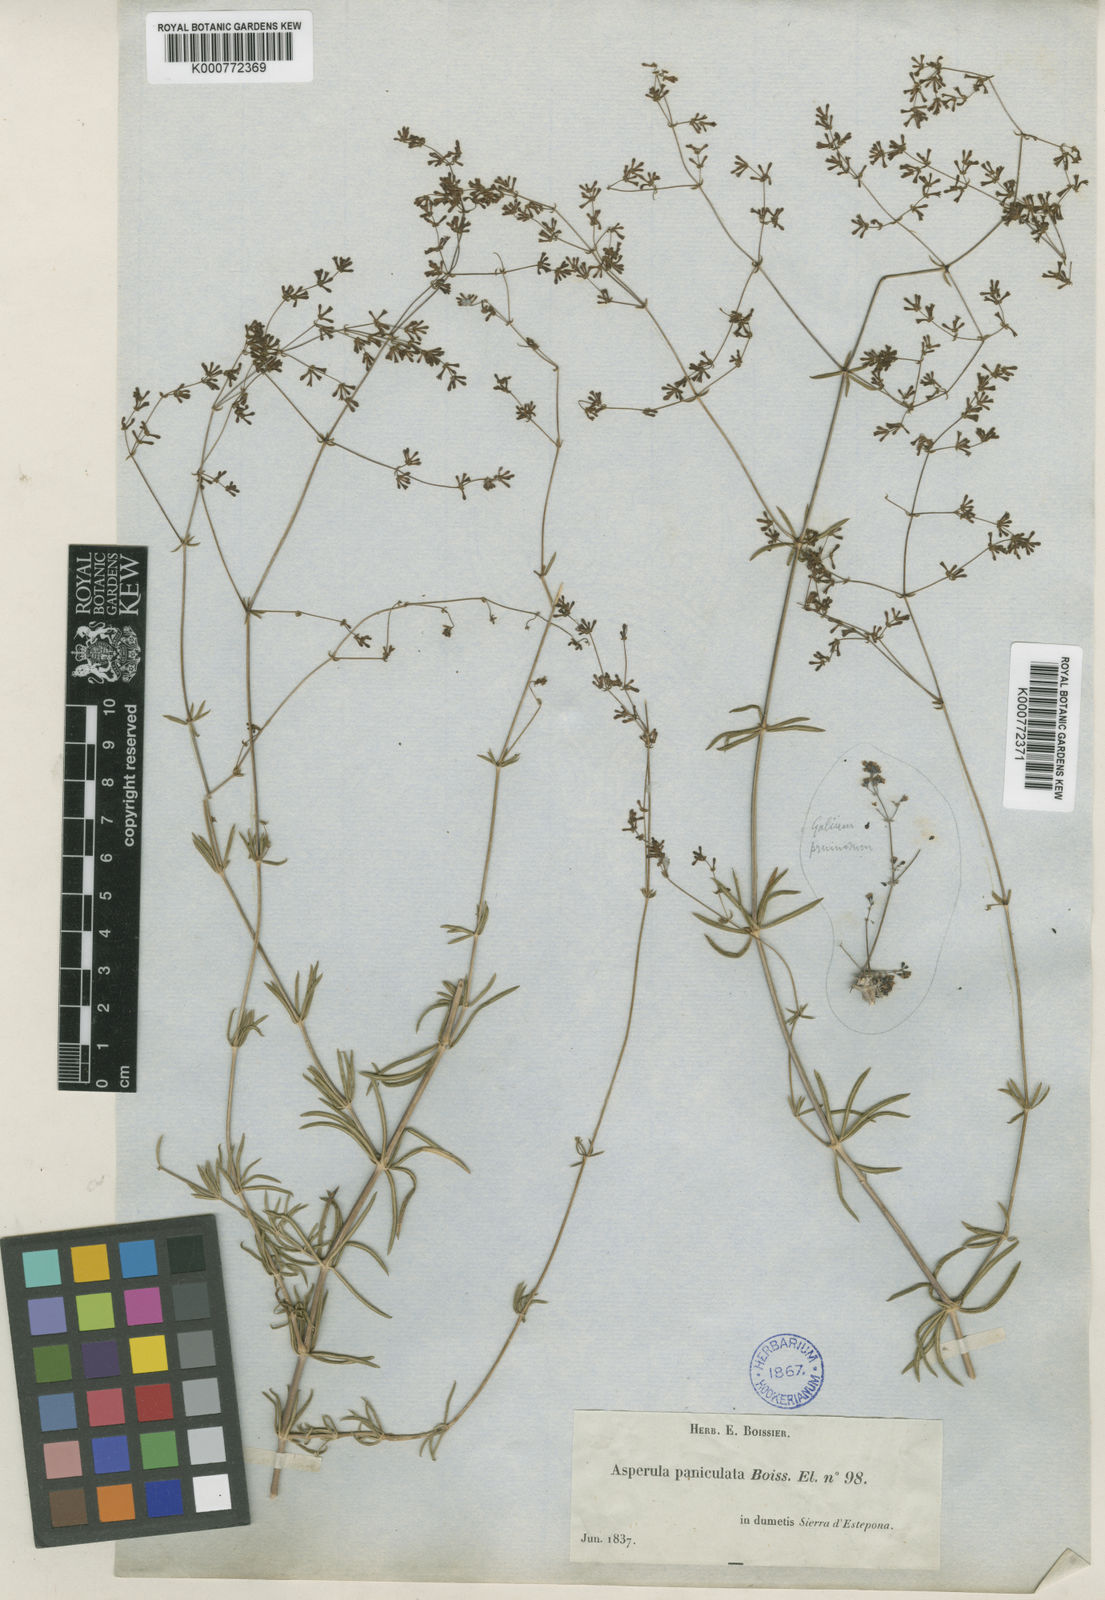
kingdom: Plantae
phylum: Tracheophyta
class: Magnoliopsida
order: Gentianales
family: Rubiaceae
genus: Galium
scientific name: Galium
